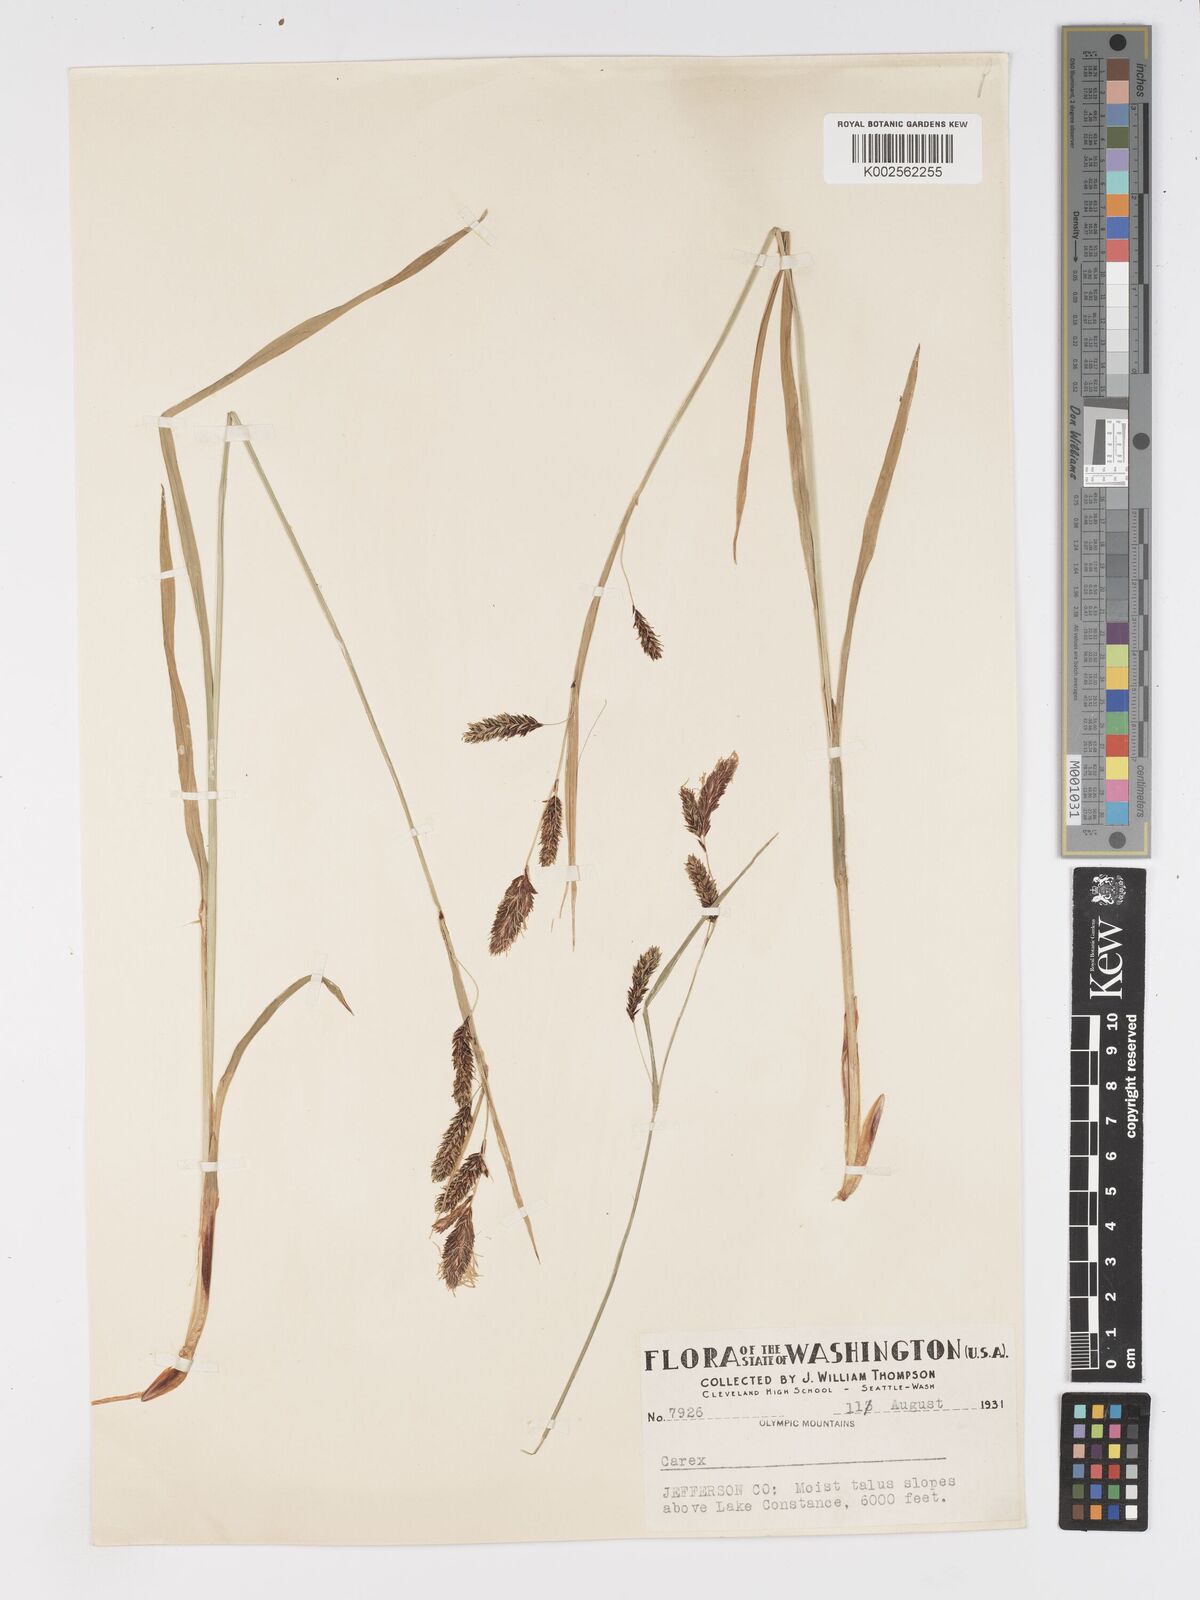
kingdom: Plantae
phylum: Tracheophyta
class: Liliopsida
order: Poales
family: Cyperaceae
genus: Carex
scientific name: Carex nebrascensis
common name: Nebraska sedge
